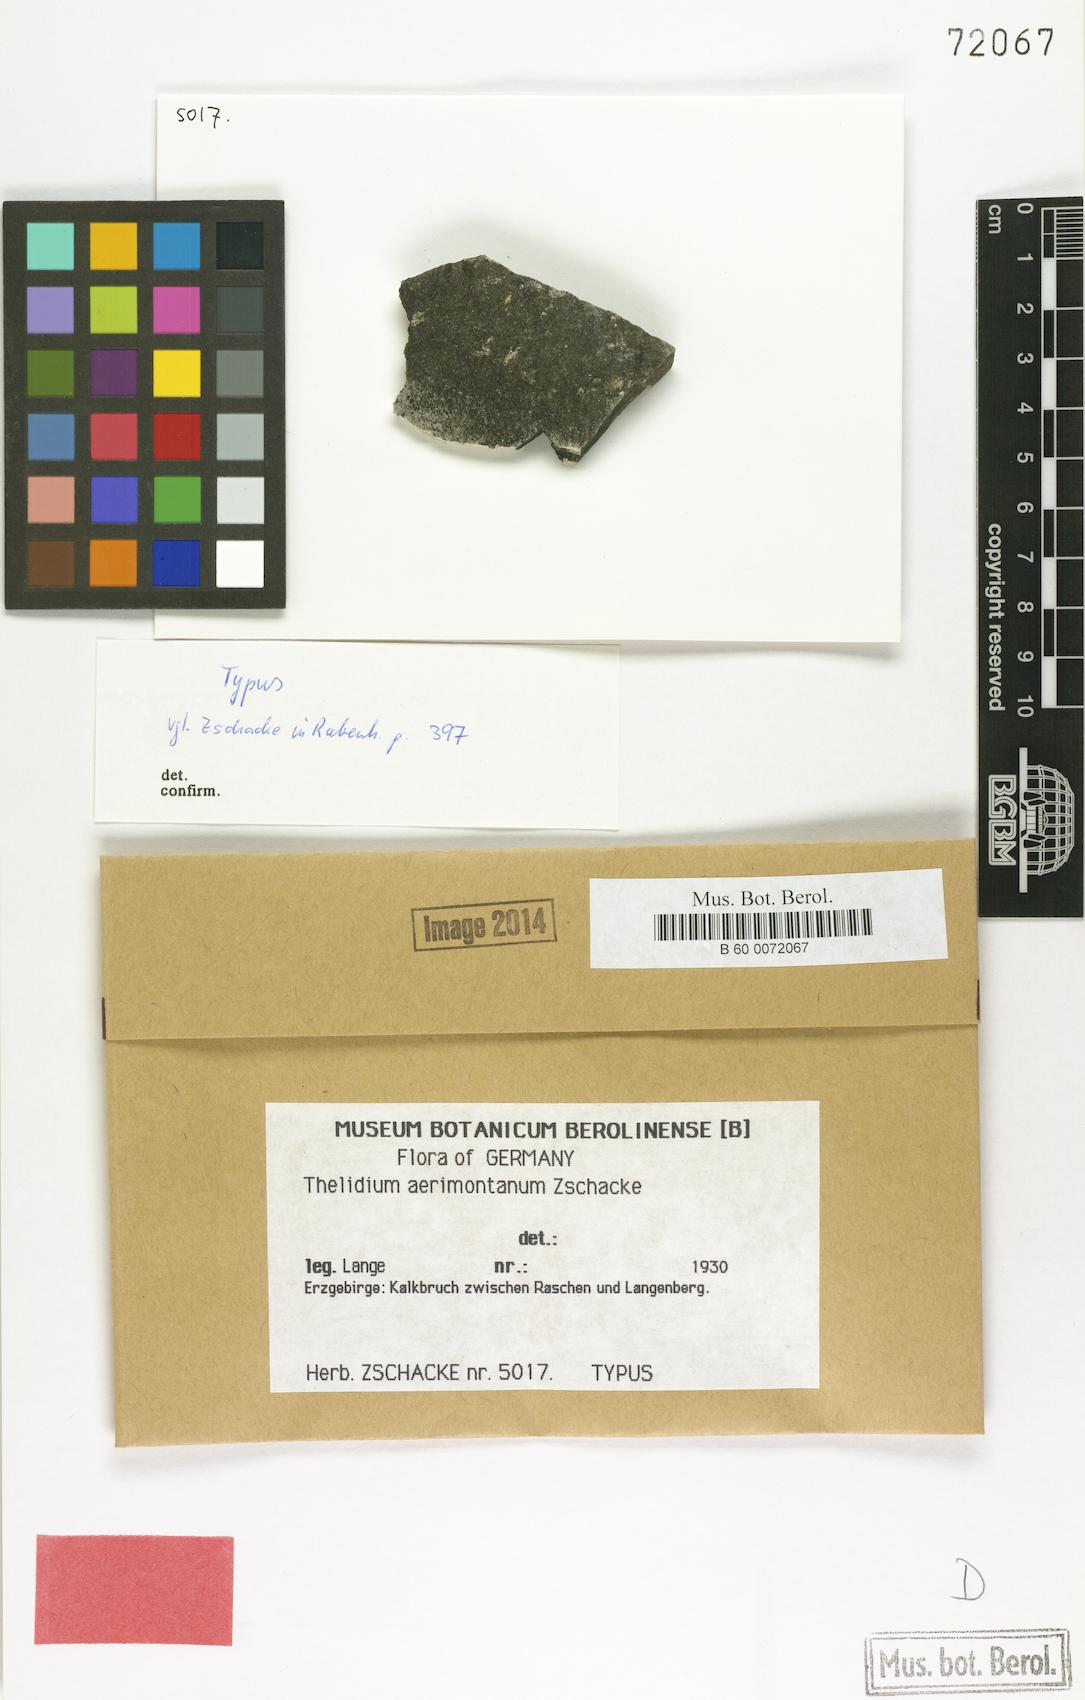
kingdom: Fungi
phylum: Ascomycota
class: Eurotiomycetes
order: Verrucariales
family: Verrucariaceae
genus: Thelidium
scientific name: Thelidium
